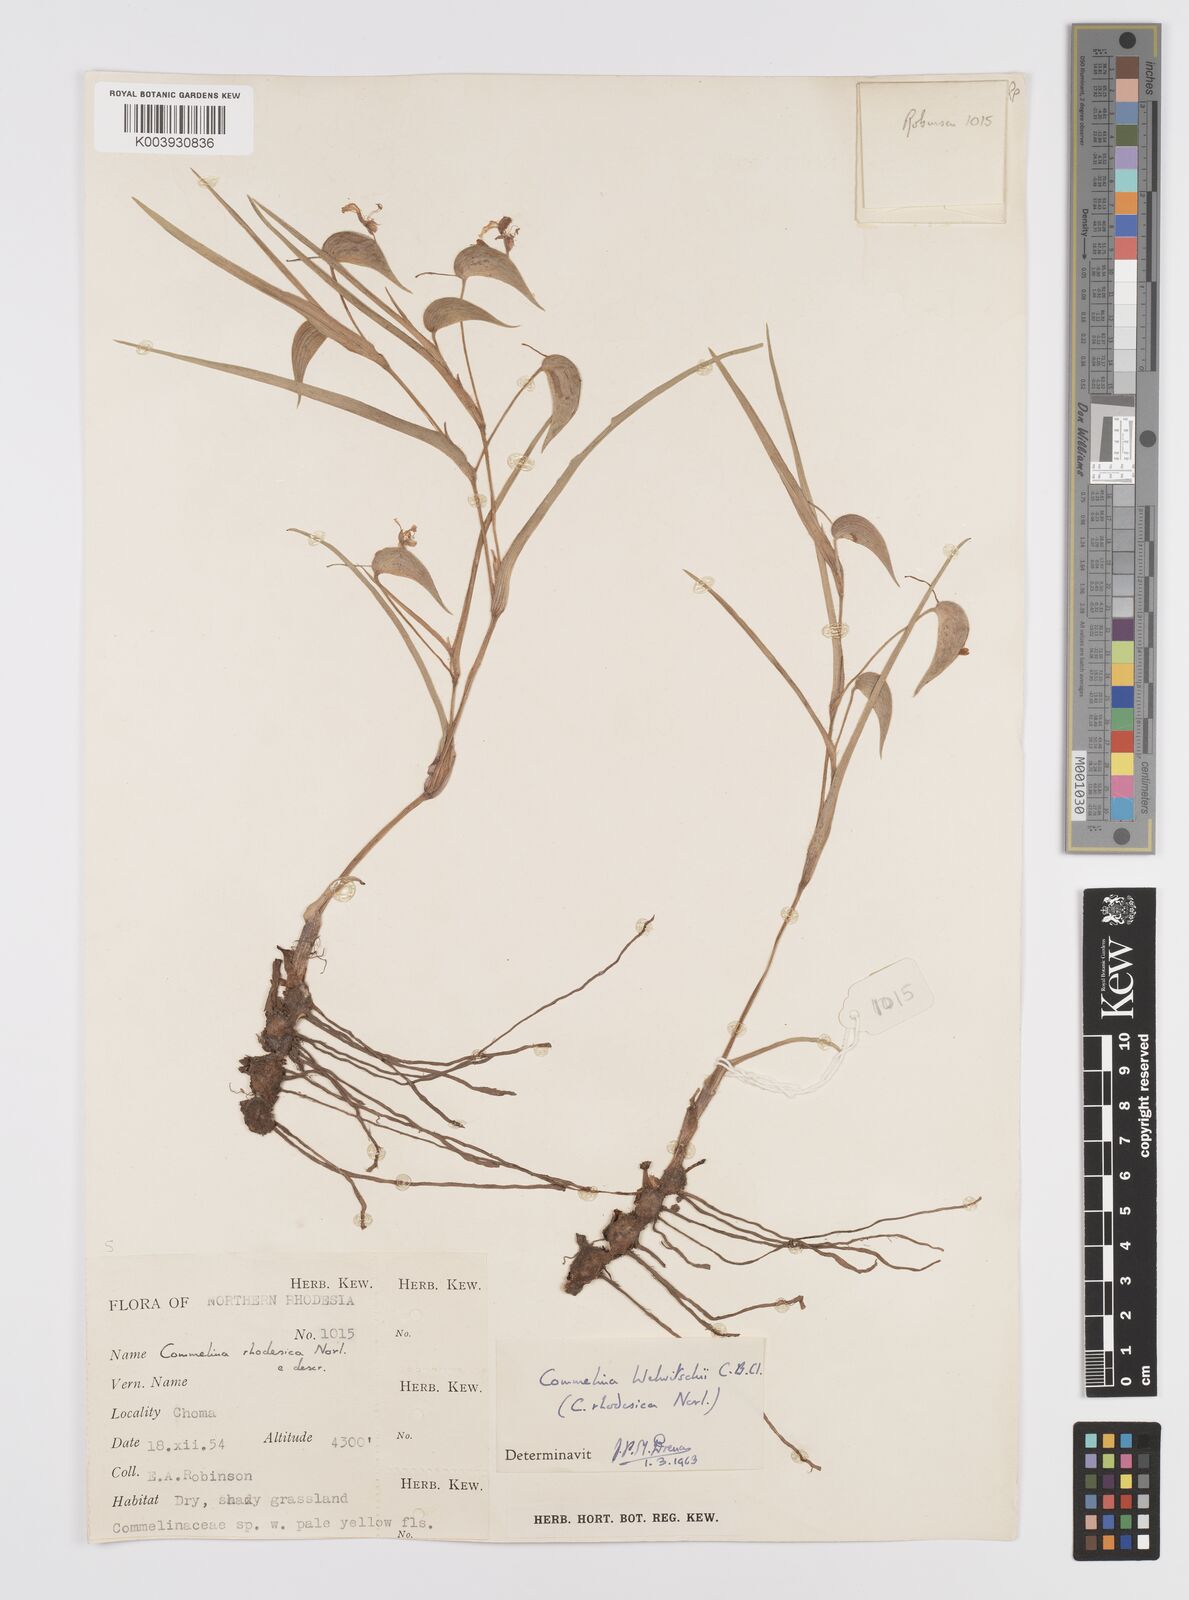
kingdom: Plantae
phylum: Tracheophyta
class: Liliopsida
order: Commelinales
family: Commelinaceae
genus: Commelina
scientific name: Commelina welwitschii
